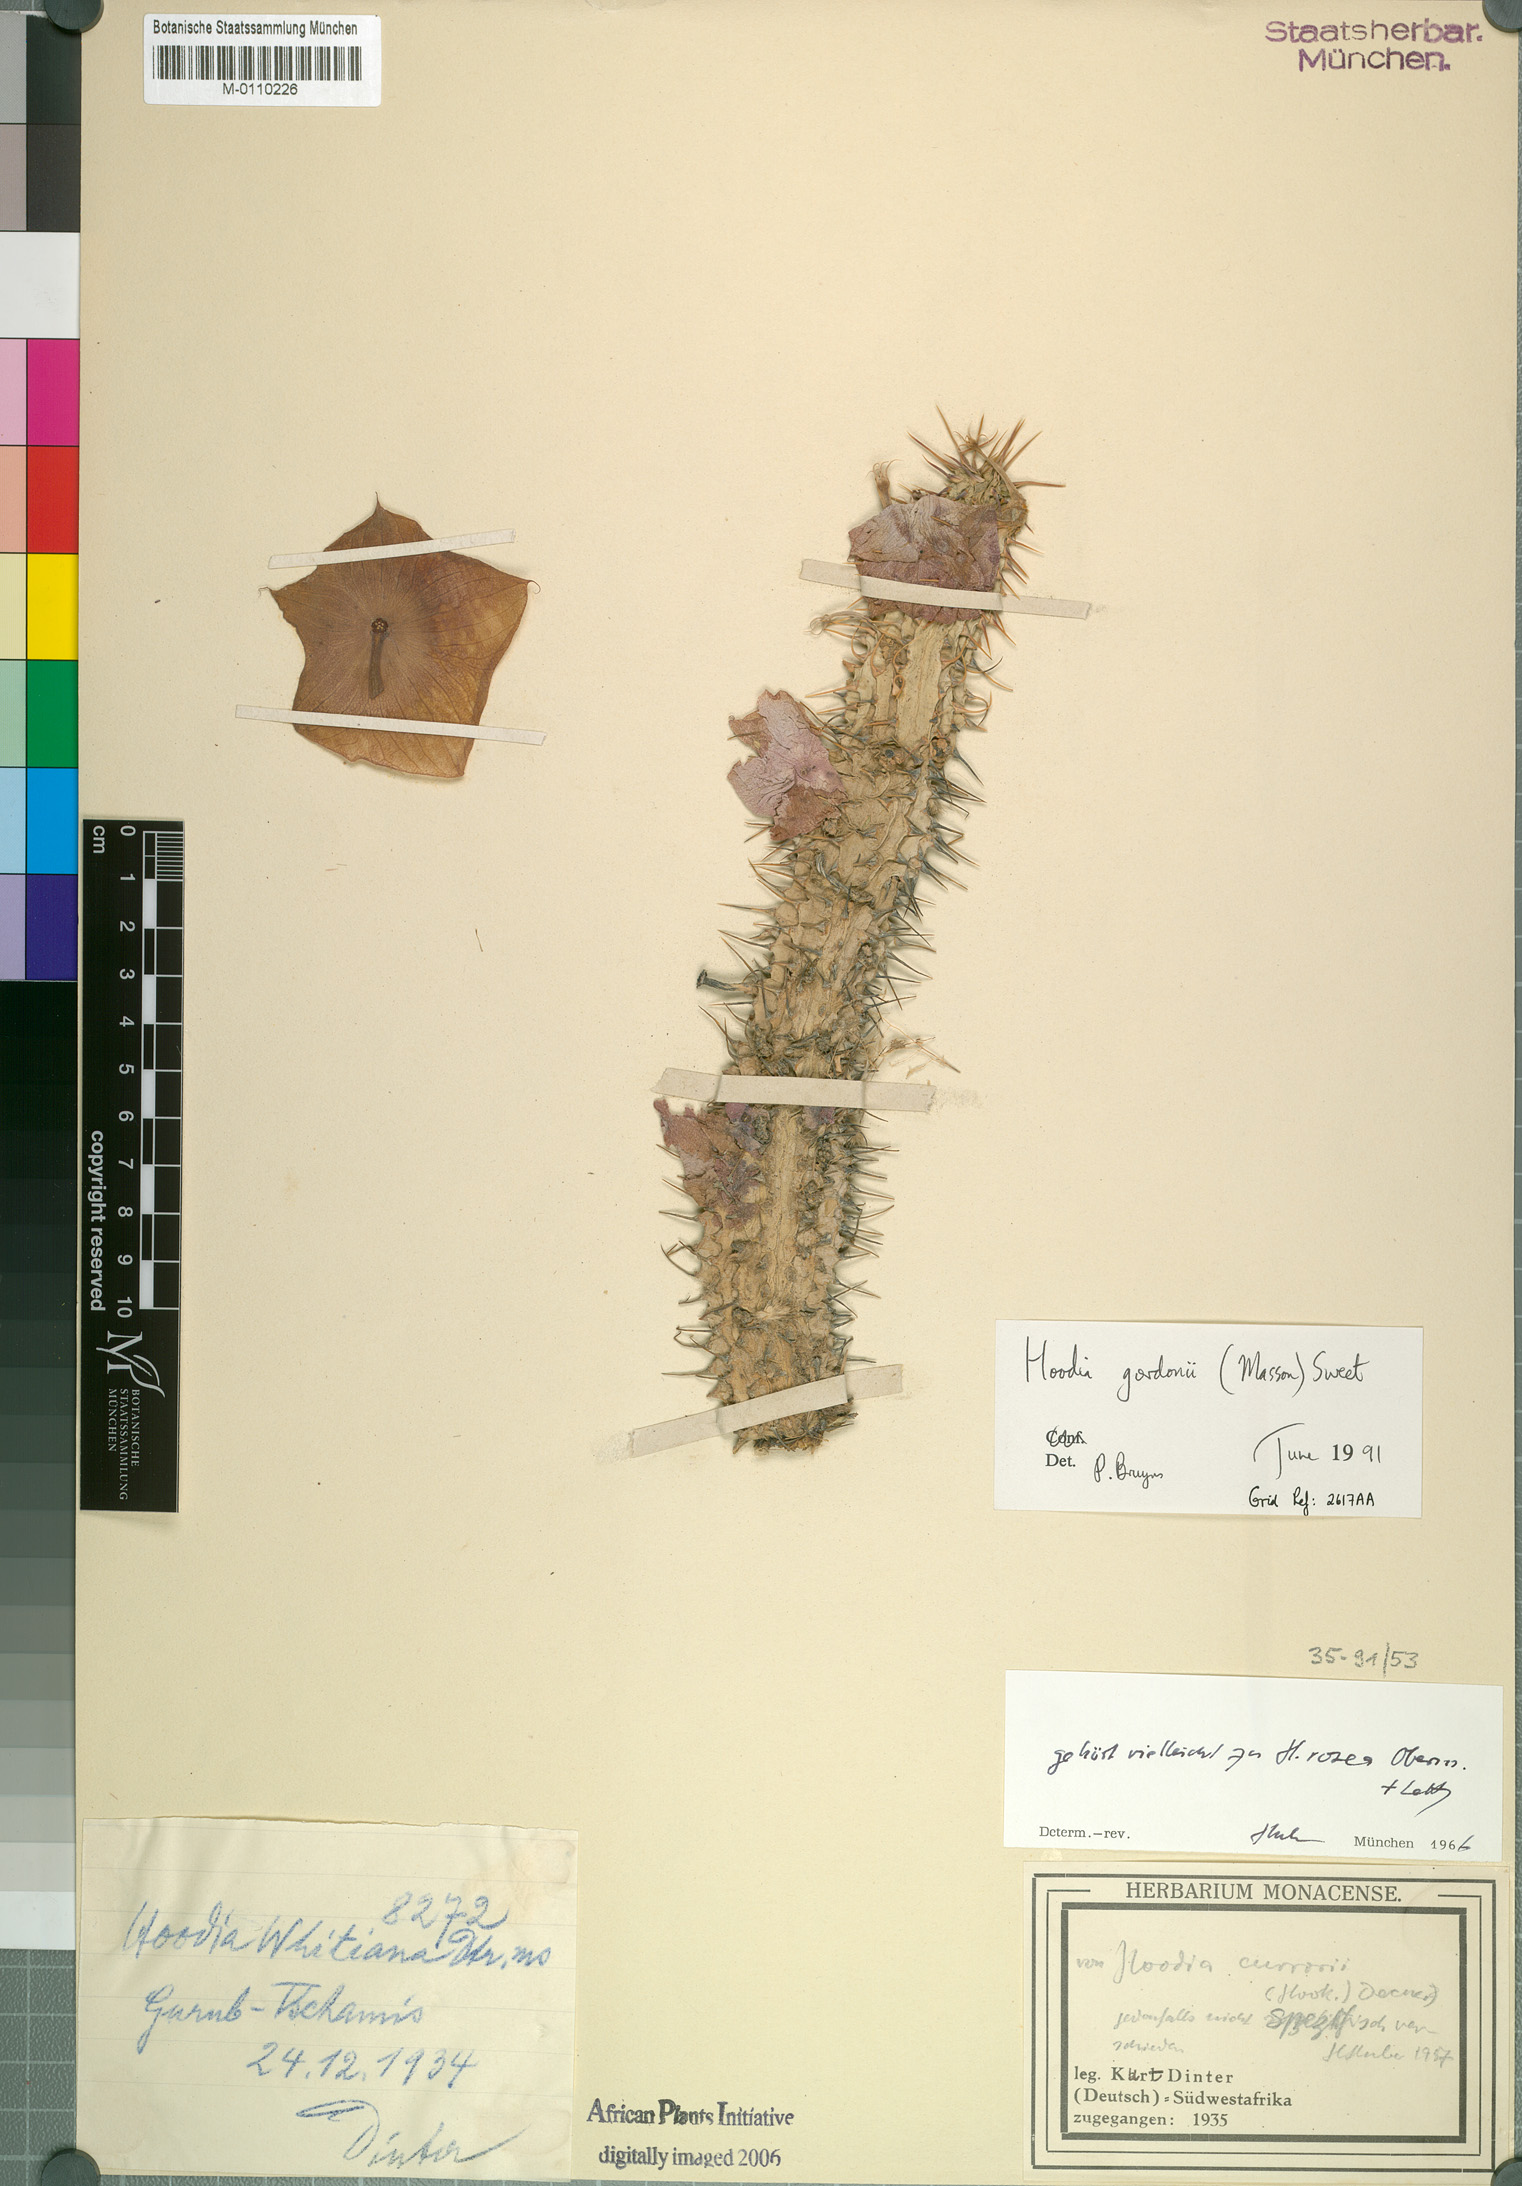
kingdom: Plantae
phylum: Tracheophyta
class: Magnoliopsida
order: Gentianales
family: Apocynaceae
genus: Ceropegia
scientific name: Ceropegia gordonii
